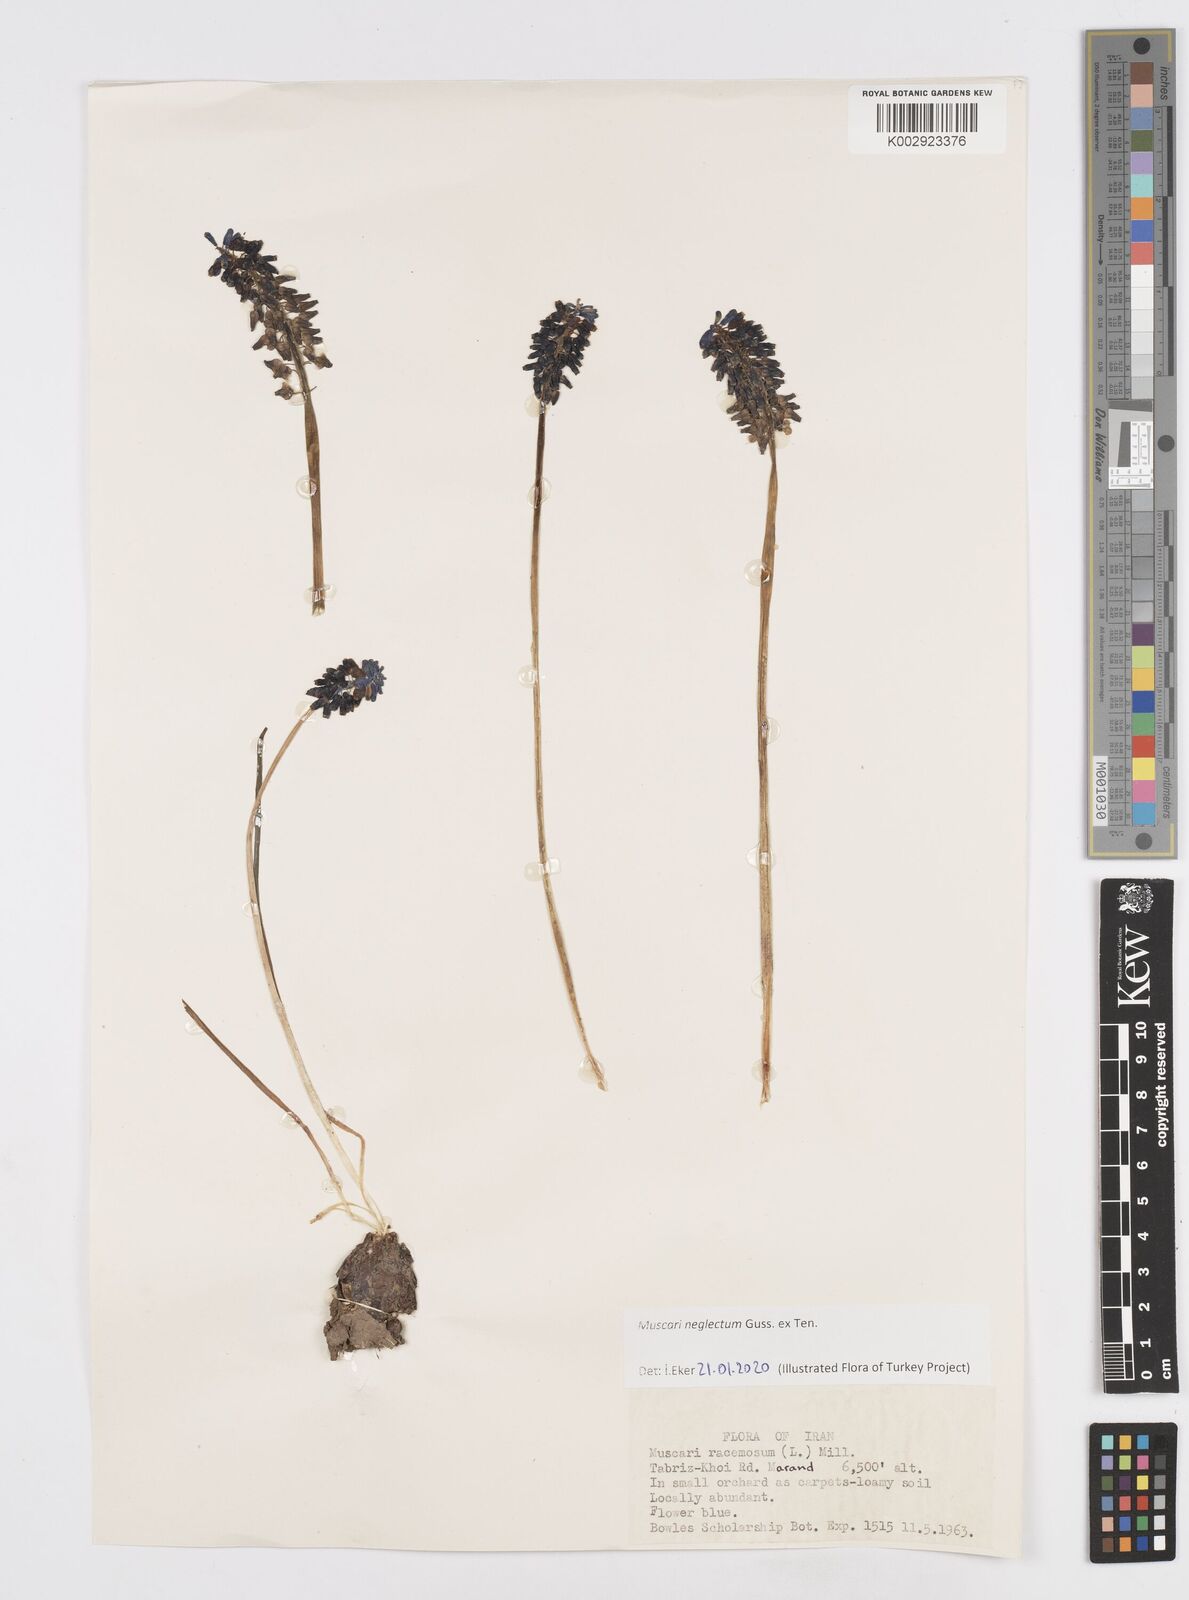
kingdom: Plantae
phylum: Tracheophyta
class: Liliopsida
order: Asparagales
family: Asparagaceae
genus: Muscari
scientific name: Muscari neglectum
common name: Grape-hyacinth
